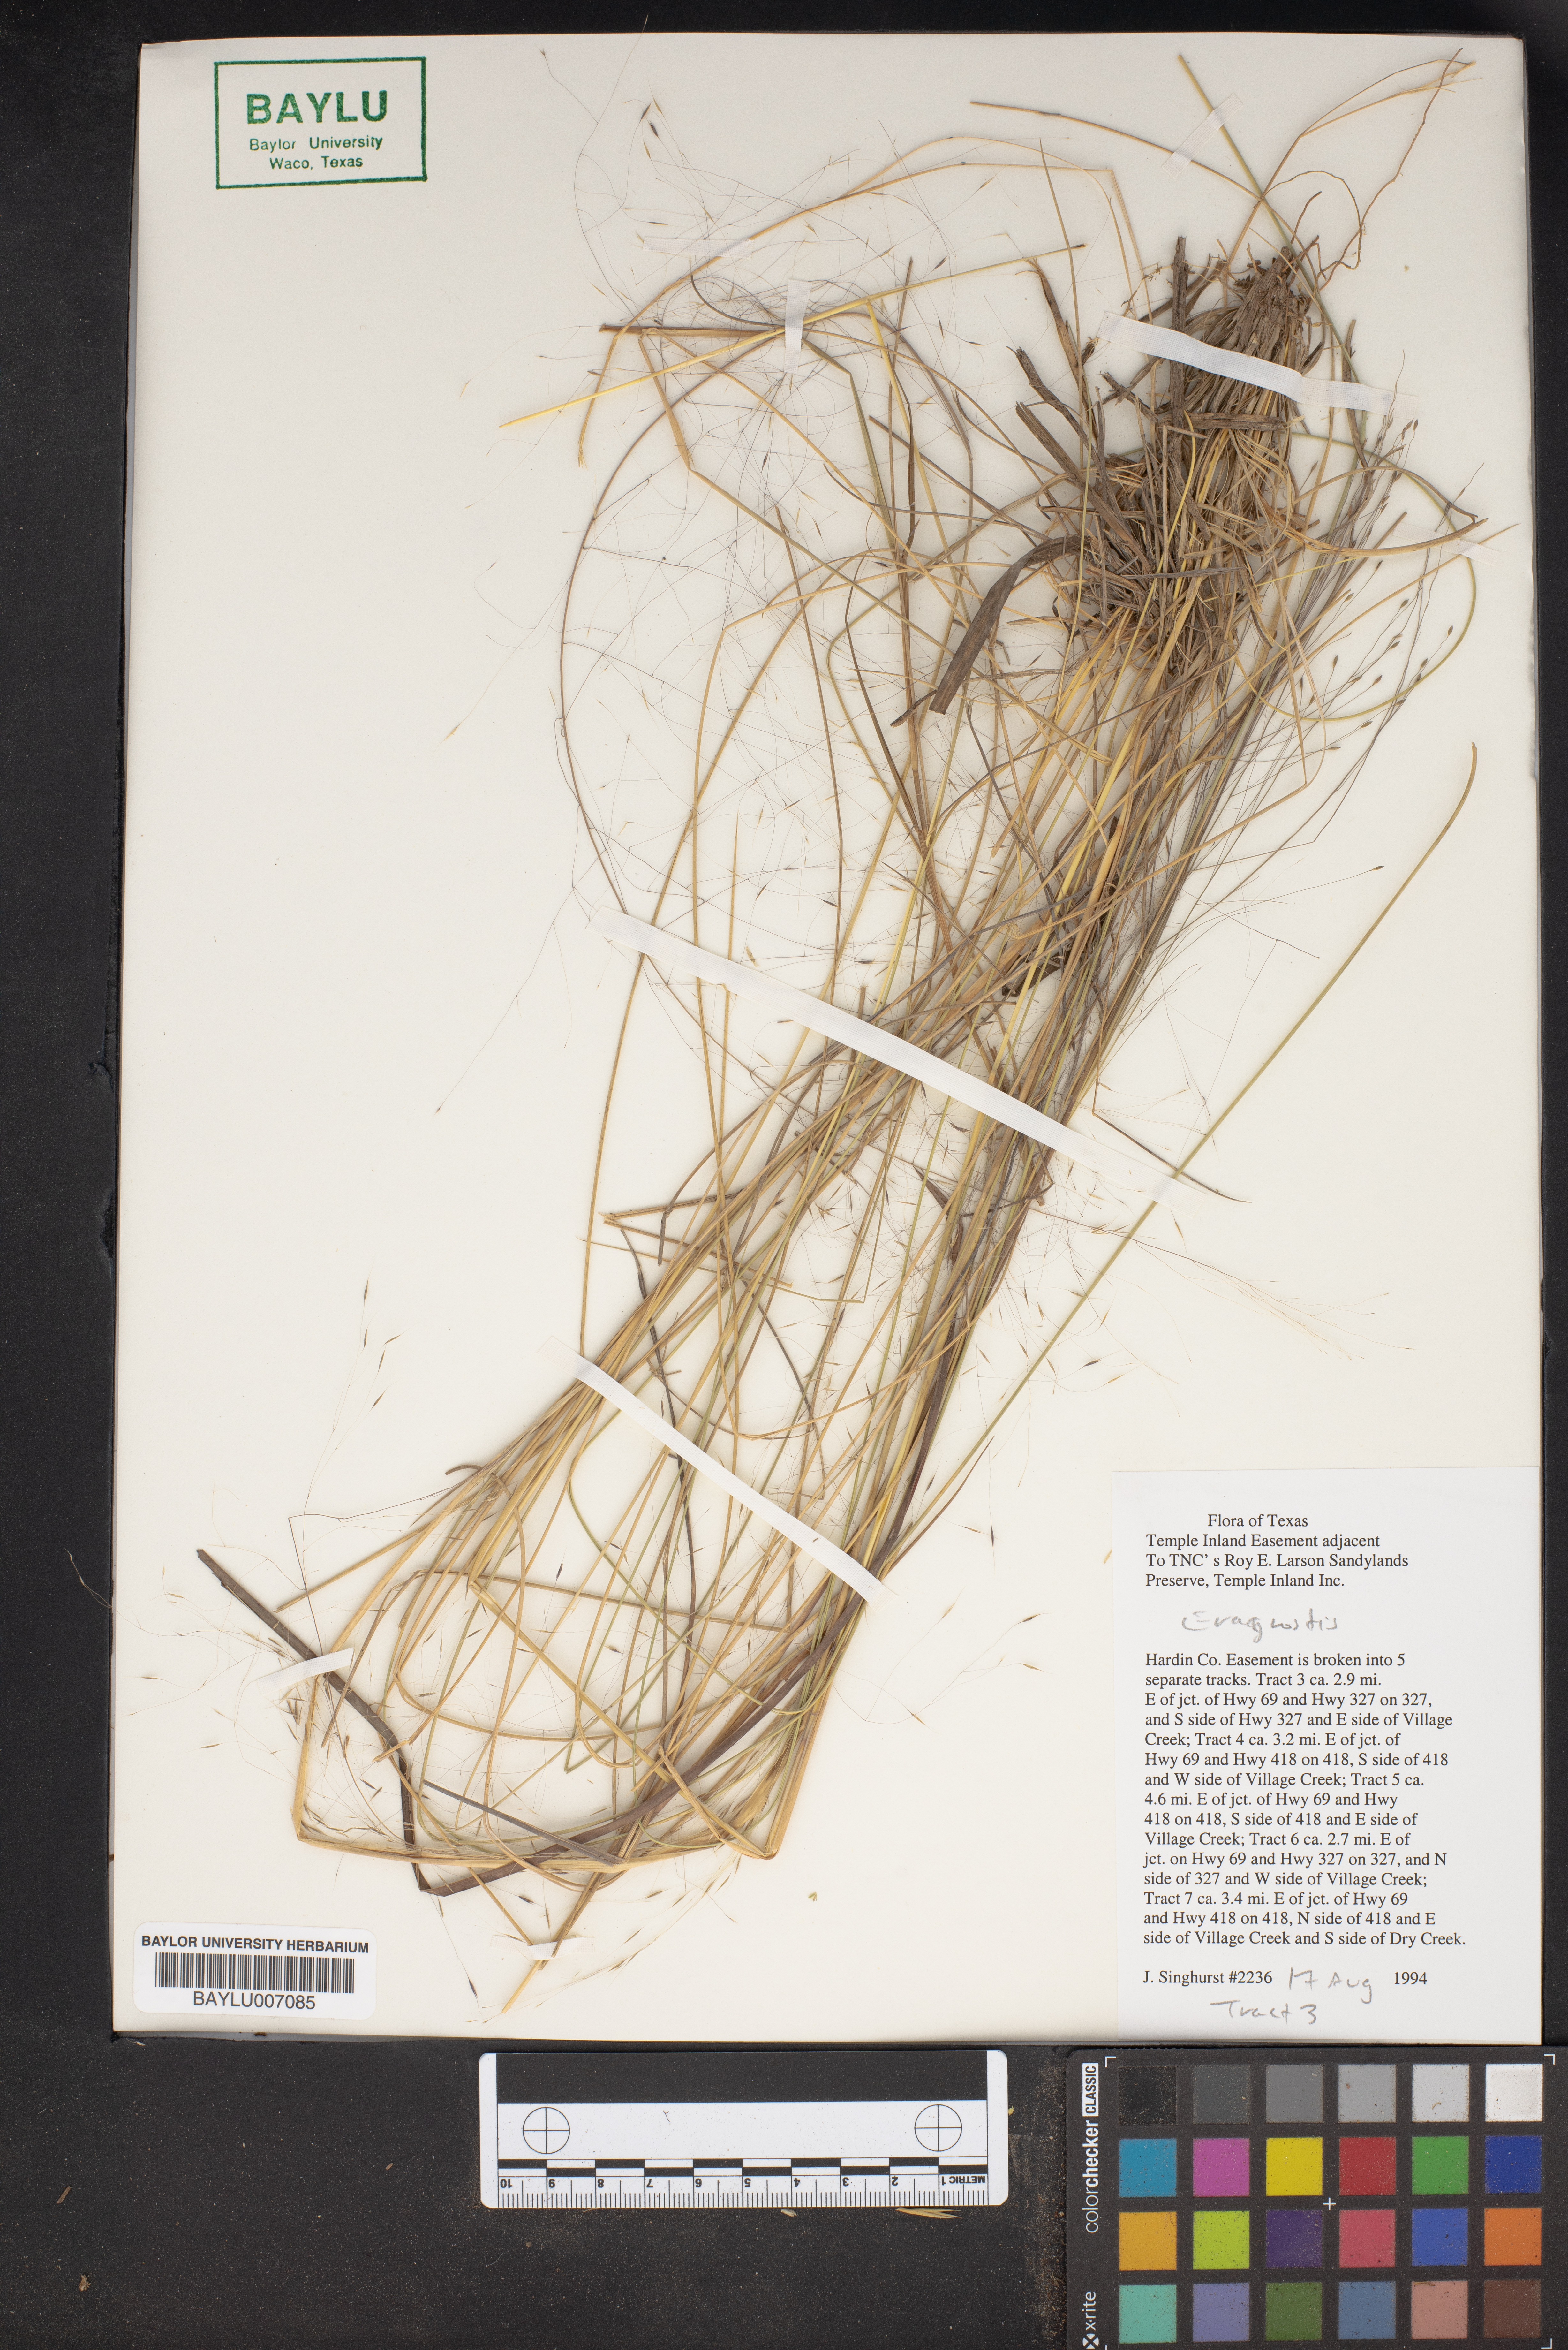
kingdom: Plantae
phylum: Tracheophyta
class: Liliopsida
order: Poales
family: Poaceae
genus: Eragrostis
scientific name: Eragrostis
